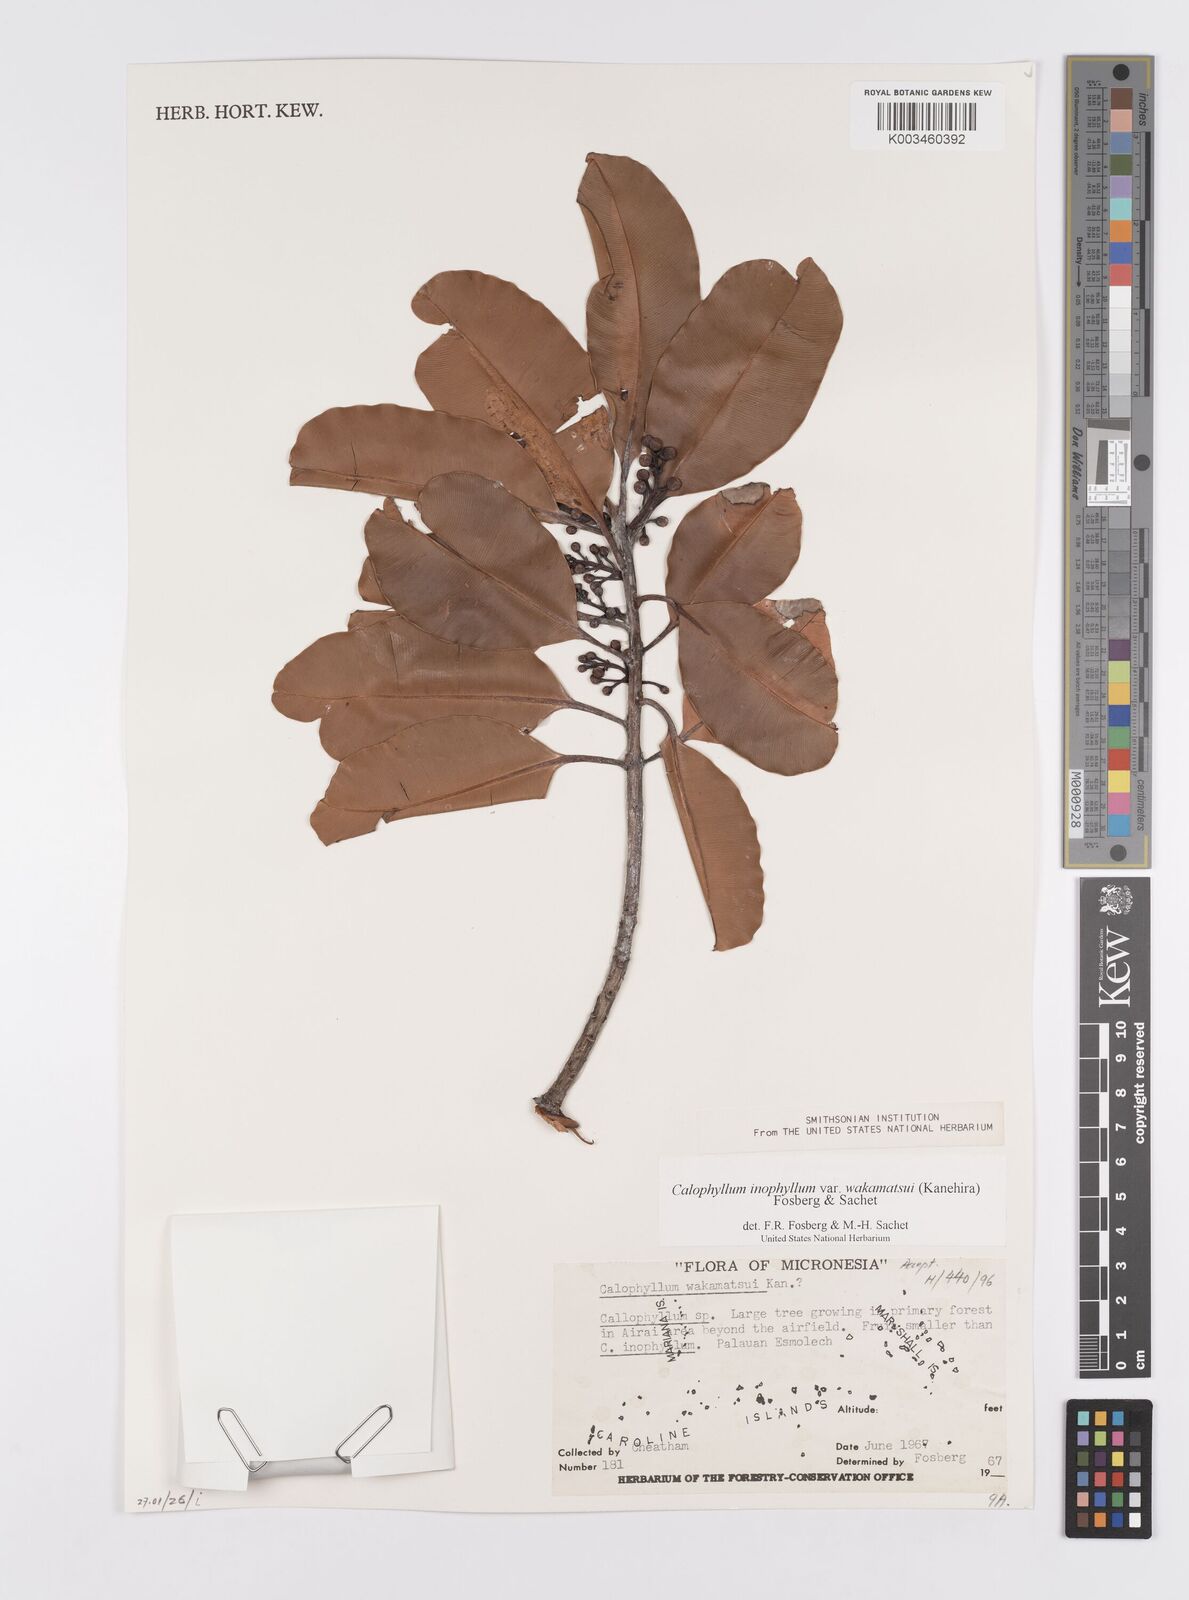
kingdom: Plantae
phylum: Tracheophyta
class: Magnoliopsida
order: Malpighiales
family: Calophyllaceae
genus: Calophyllum
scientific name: Calophyllum inophyllum
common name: Alexandrian laurel
